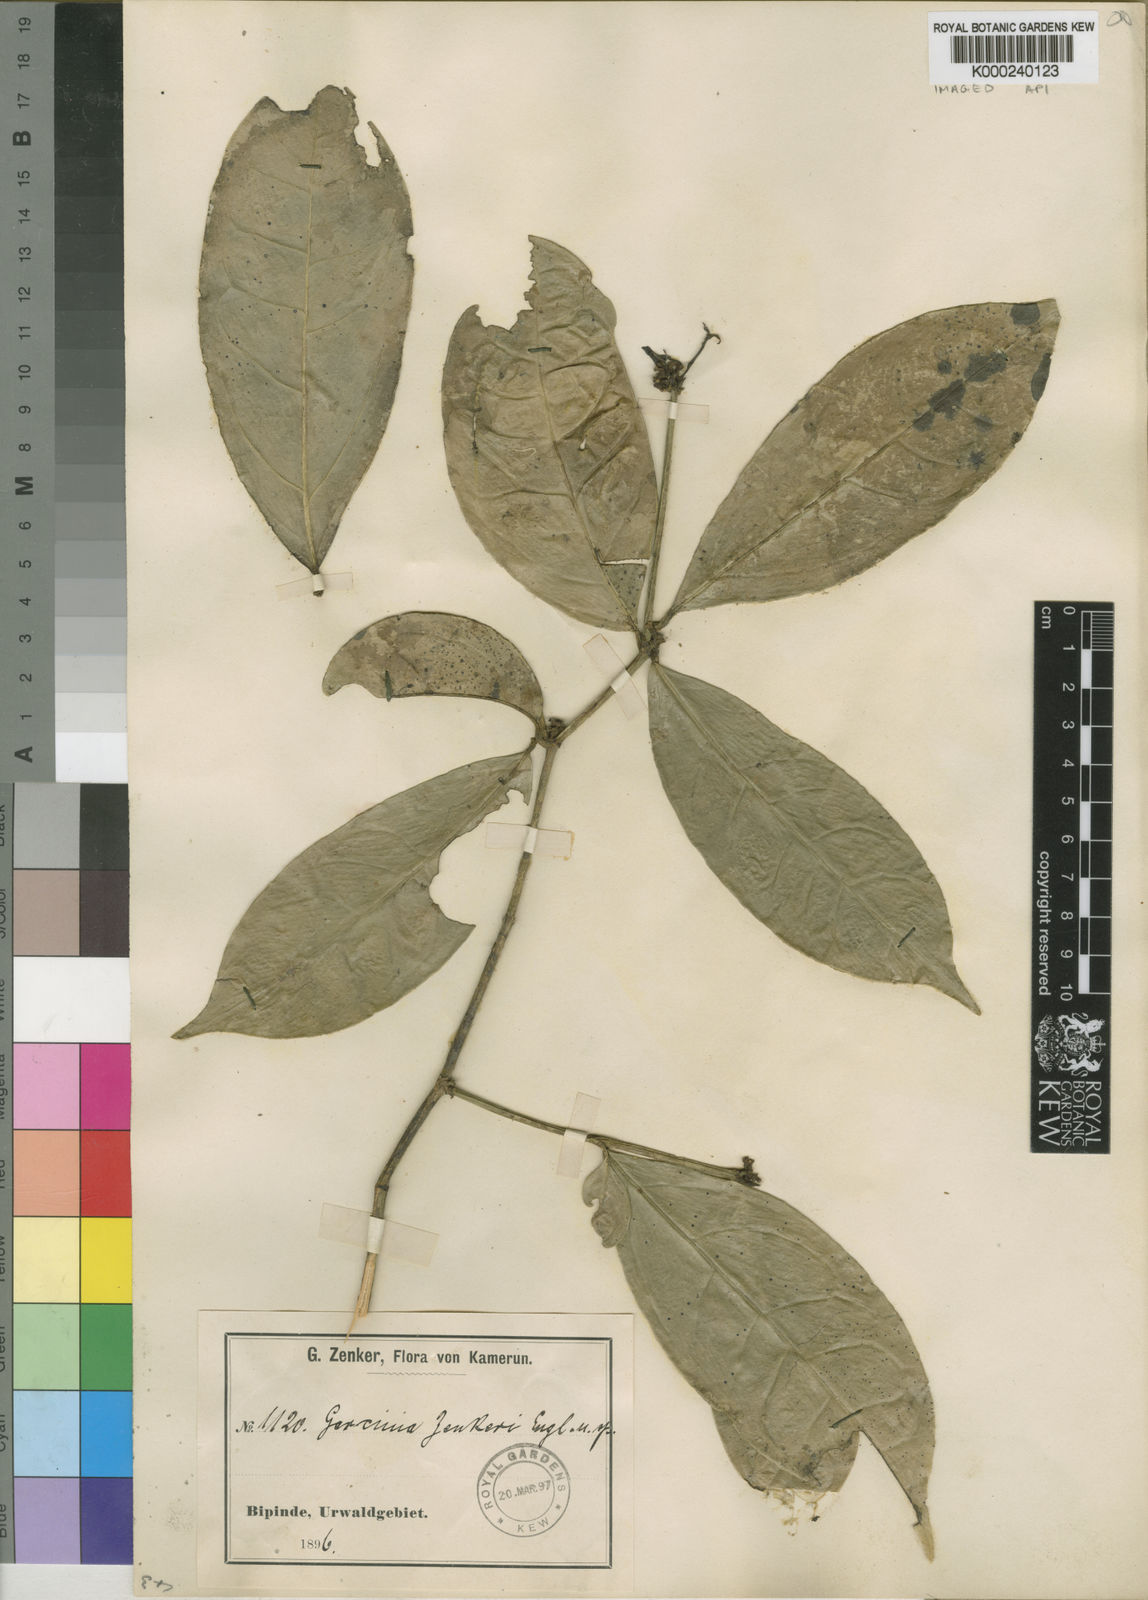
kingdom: Plantae
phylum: Tracheophyta
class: Magnoliopsida
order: Malpighiales
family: Clusiaceae
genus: Garcinia
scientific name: Garcinia densivenia
